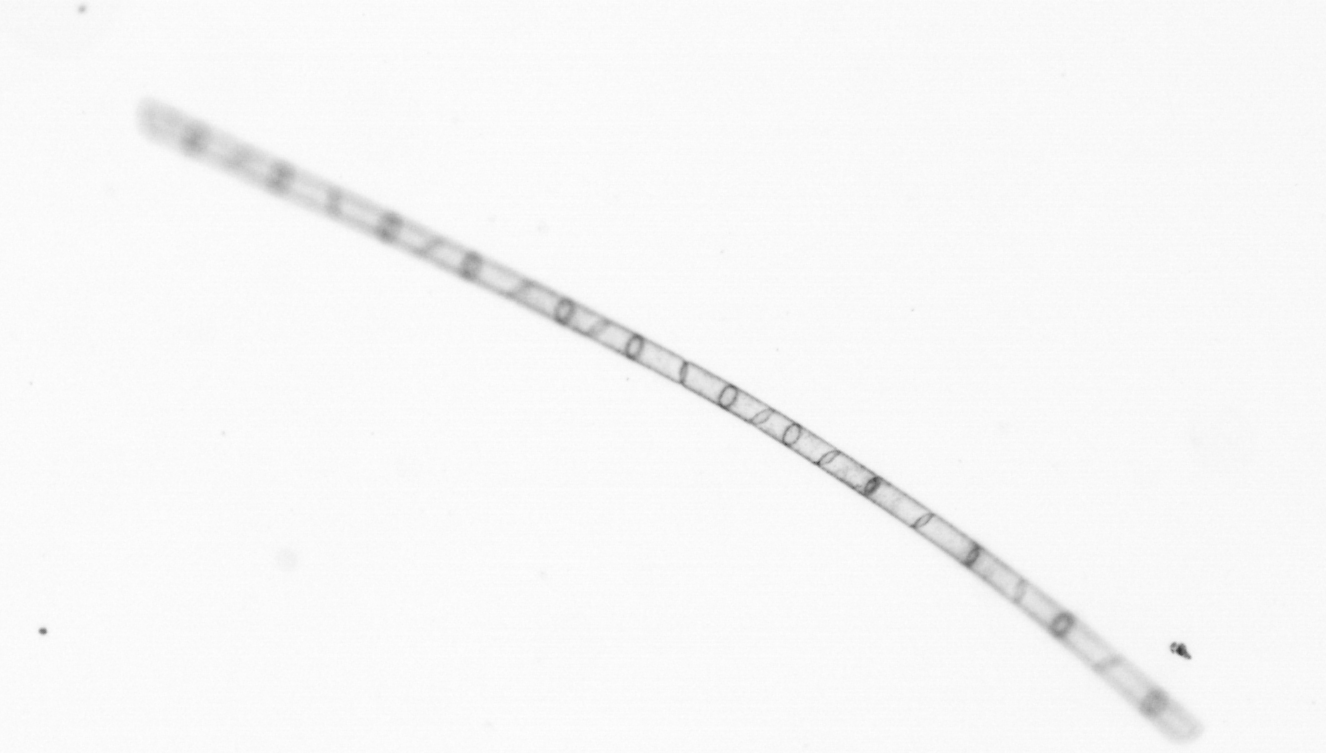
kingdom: Chromista
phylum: Ochrophyta
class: Bacillariophyceae
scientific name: Bacillariophyceae
